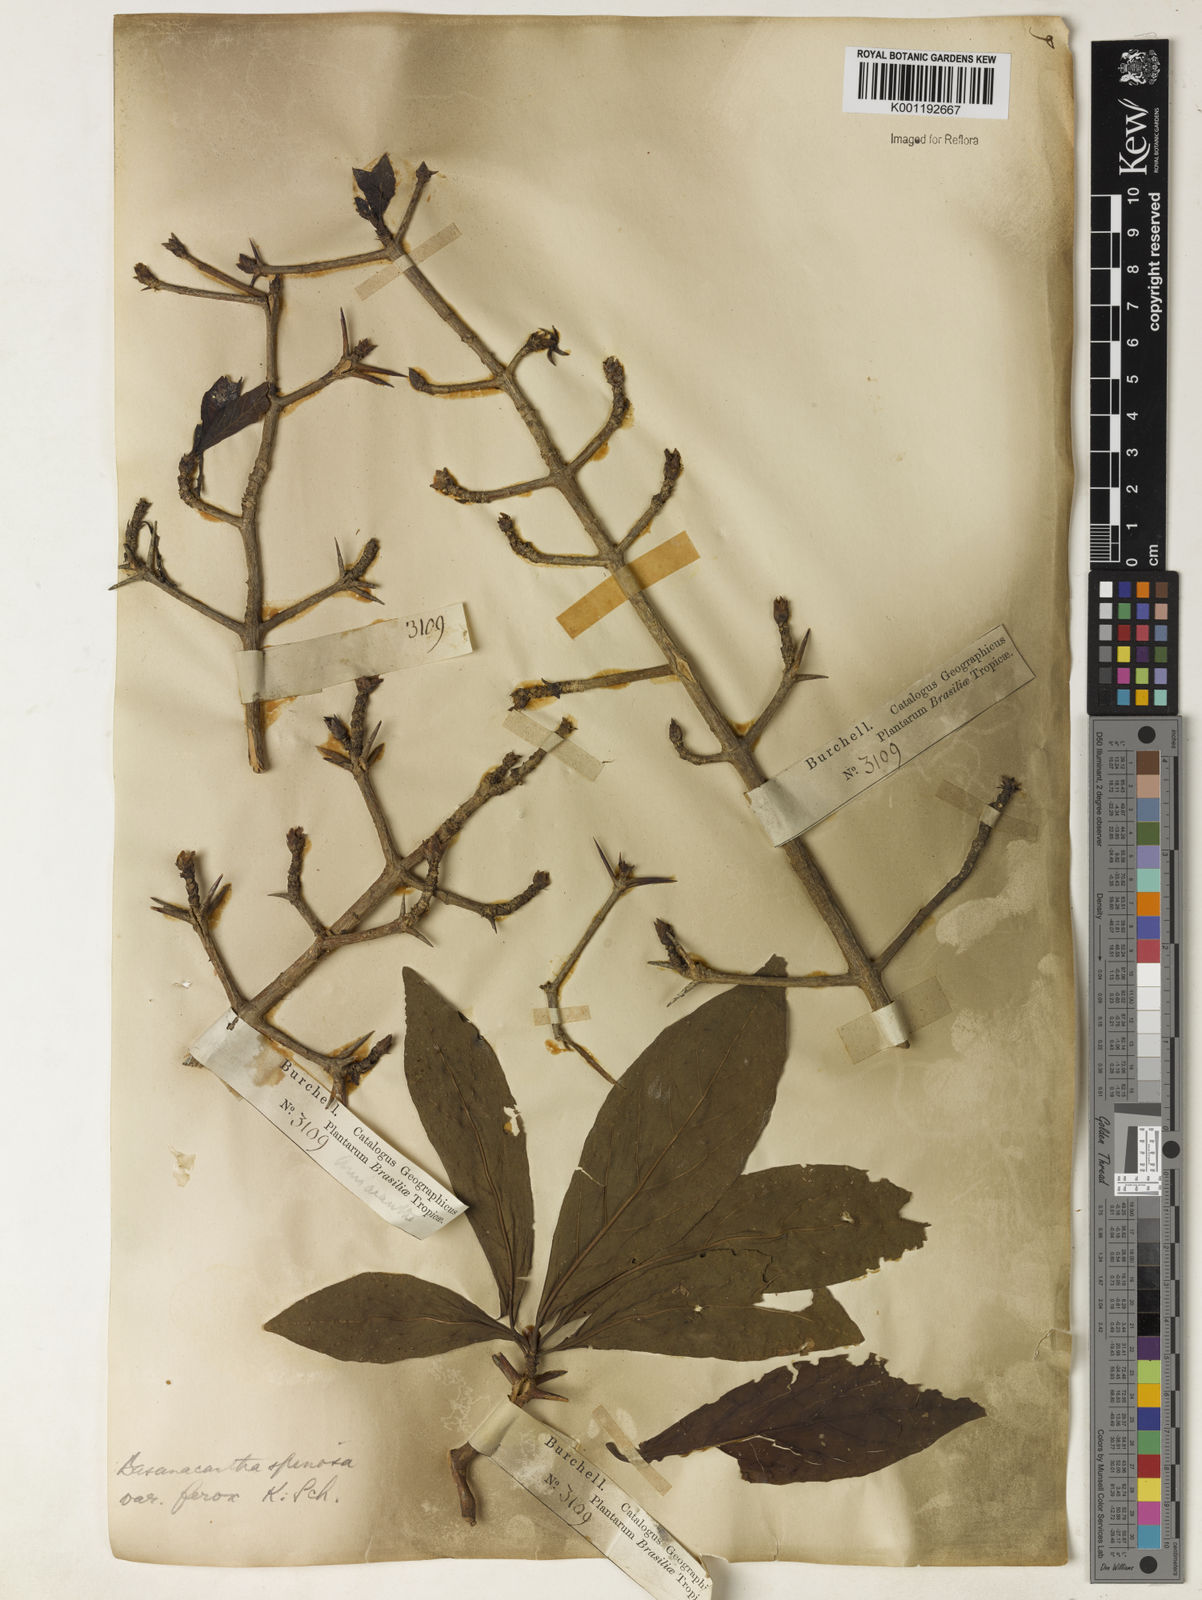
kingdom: Plantae
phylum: Tracheophyta
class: Magnoliopsida
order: Gentianales
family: Rubiaceae
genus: Randia
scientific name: Randia armata
